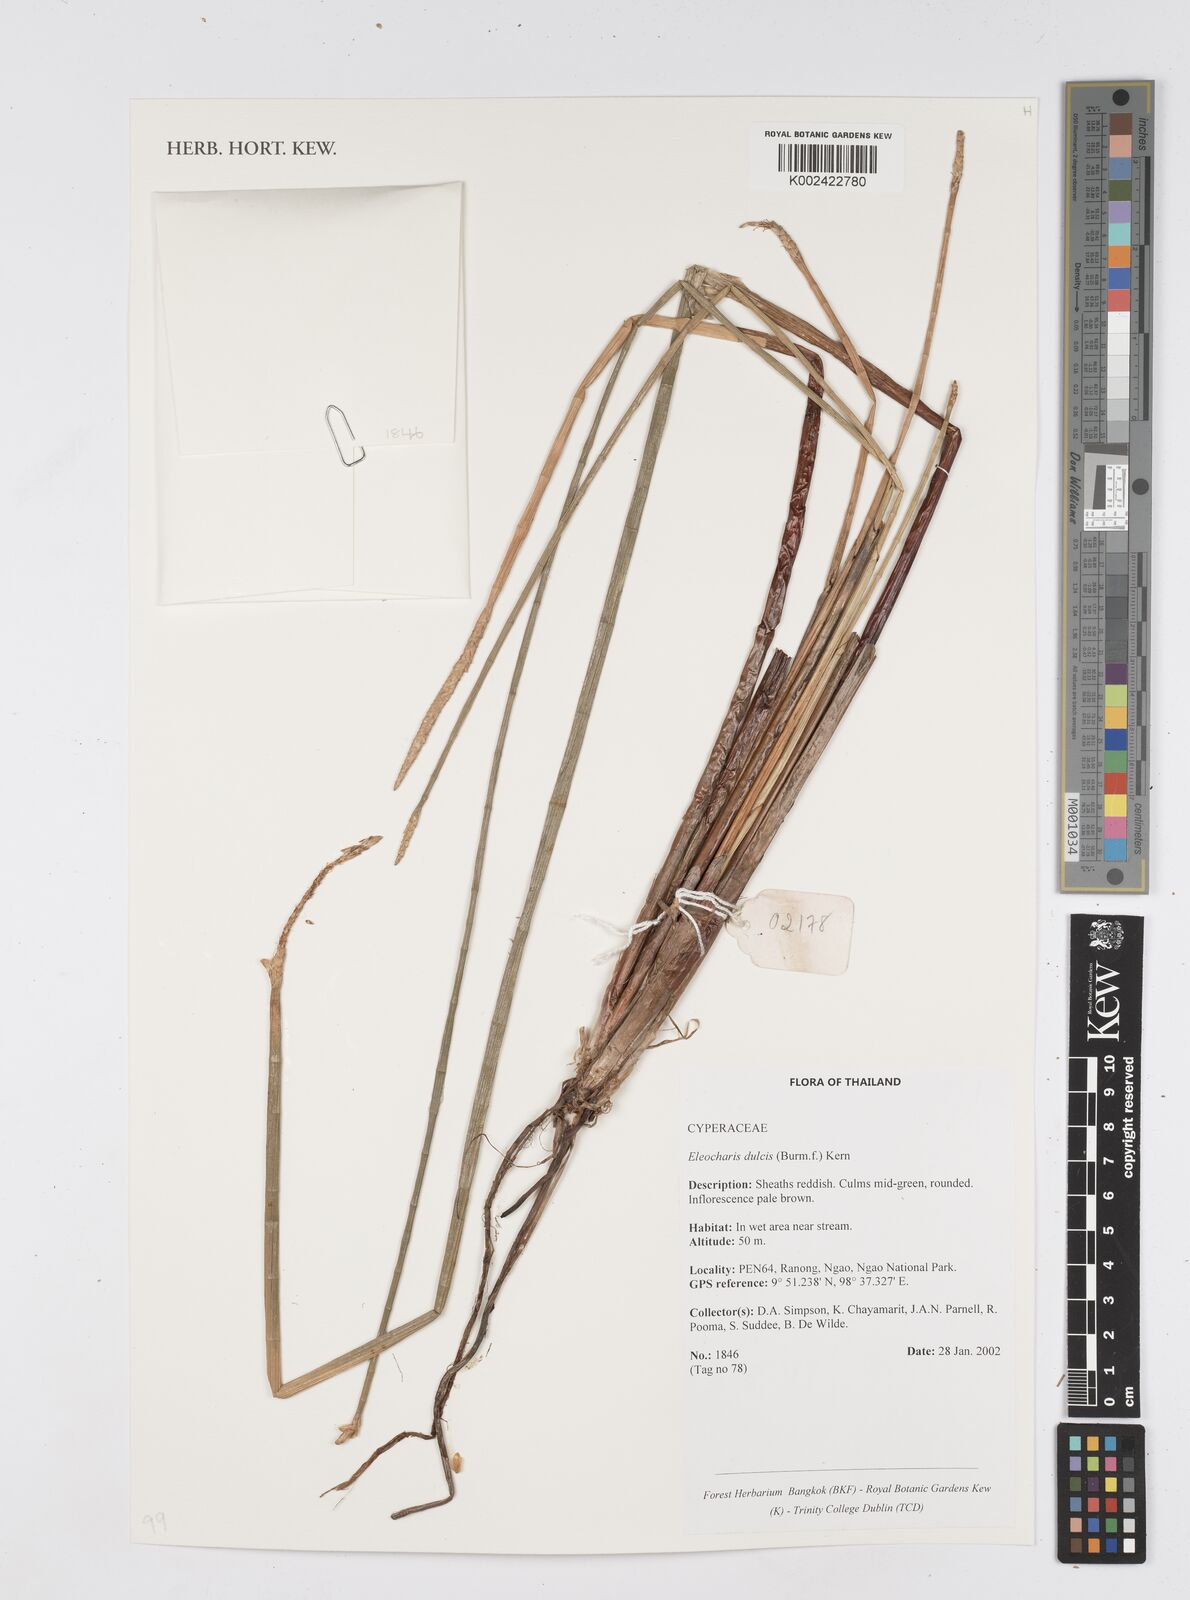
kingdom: Plantae
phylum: Tracheophyta
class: Liliopsida
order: Poales
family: Cyperaceae
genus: Eleocharis
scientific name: Eleocharis dulcis
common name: Chinese water chestnut
